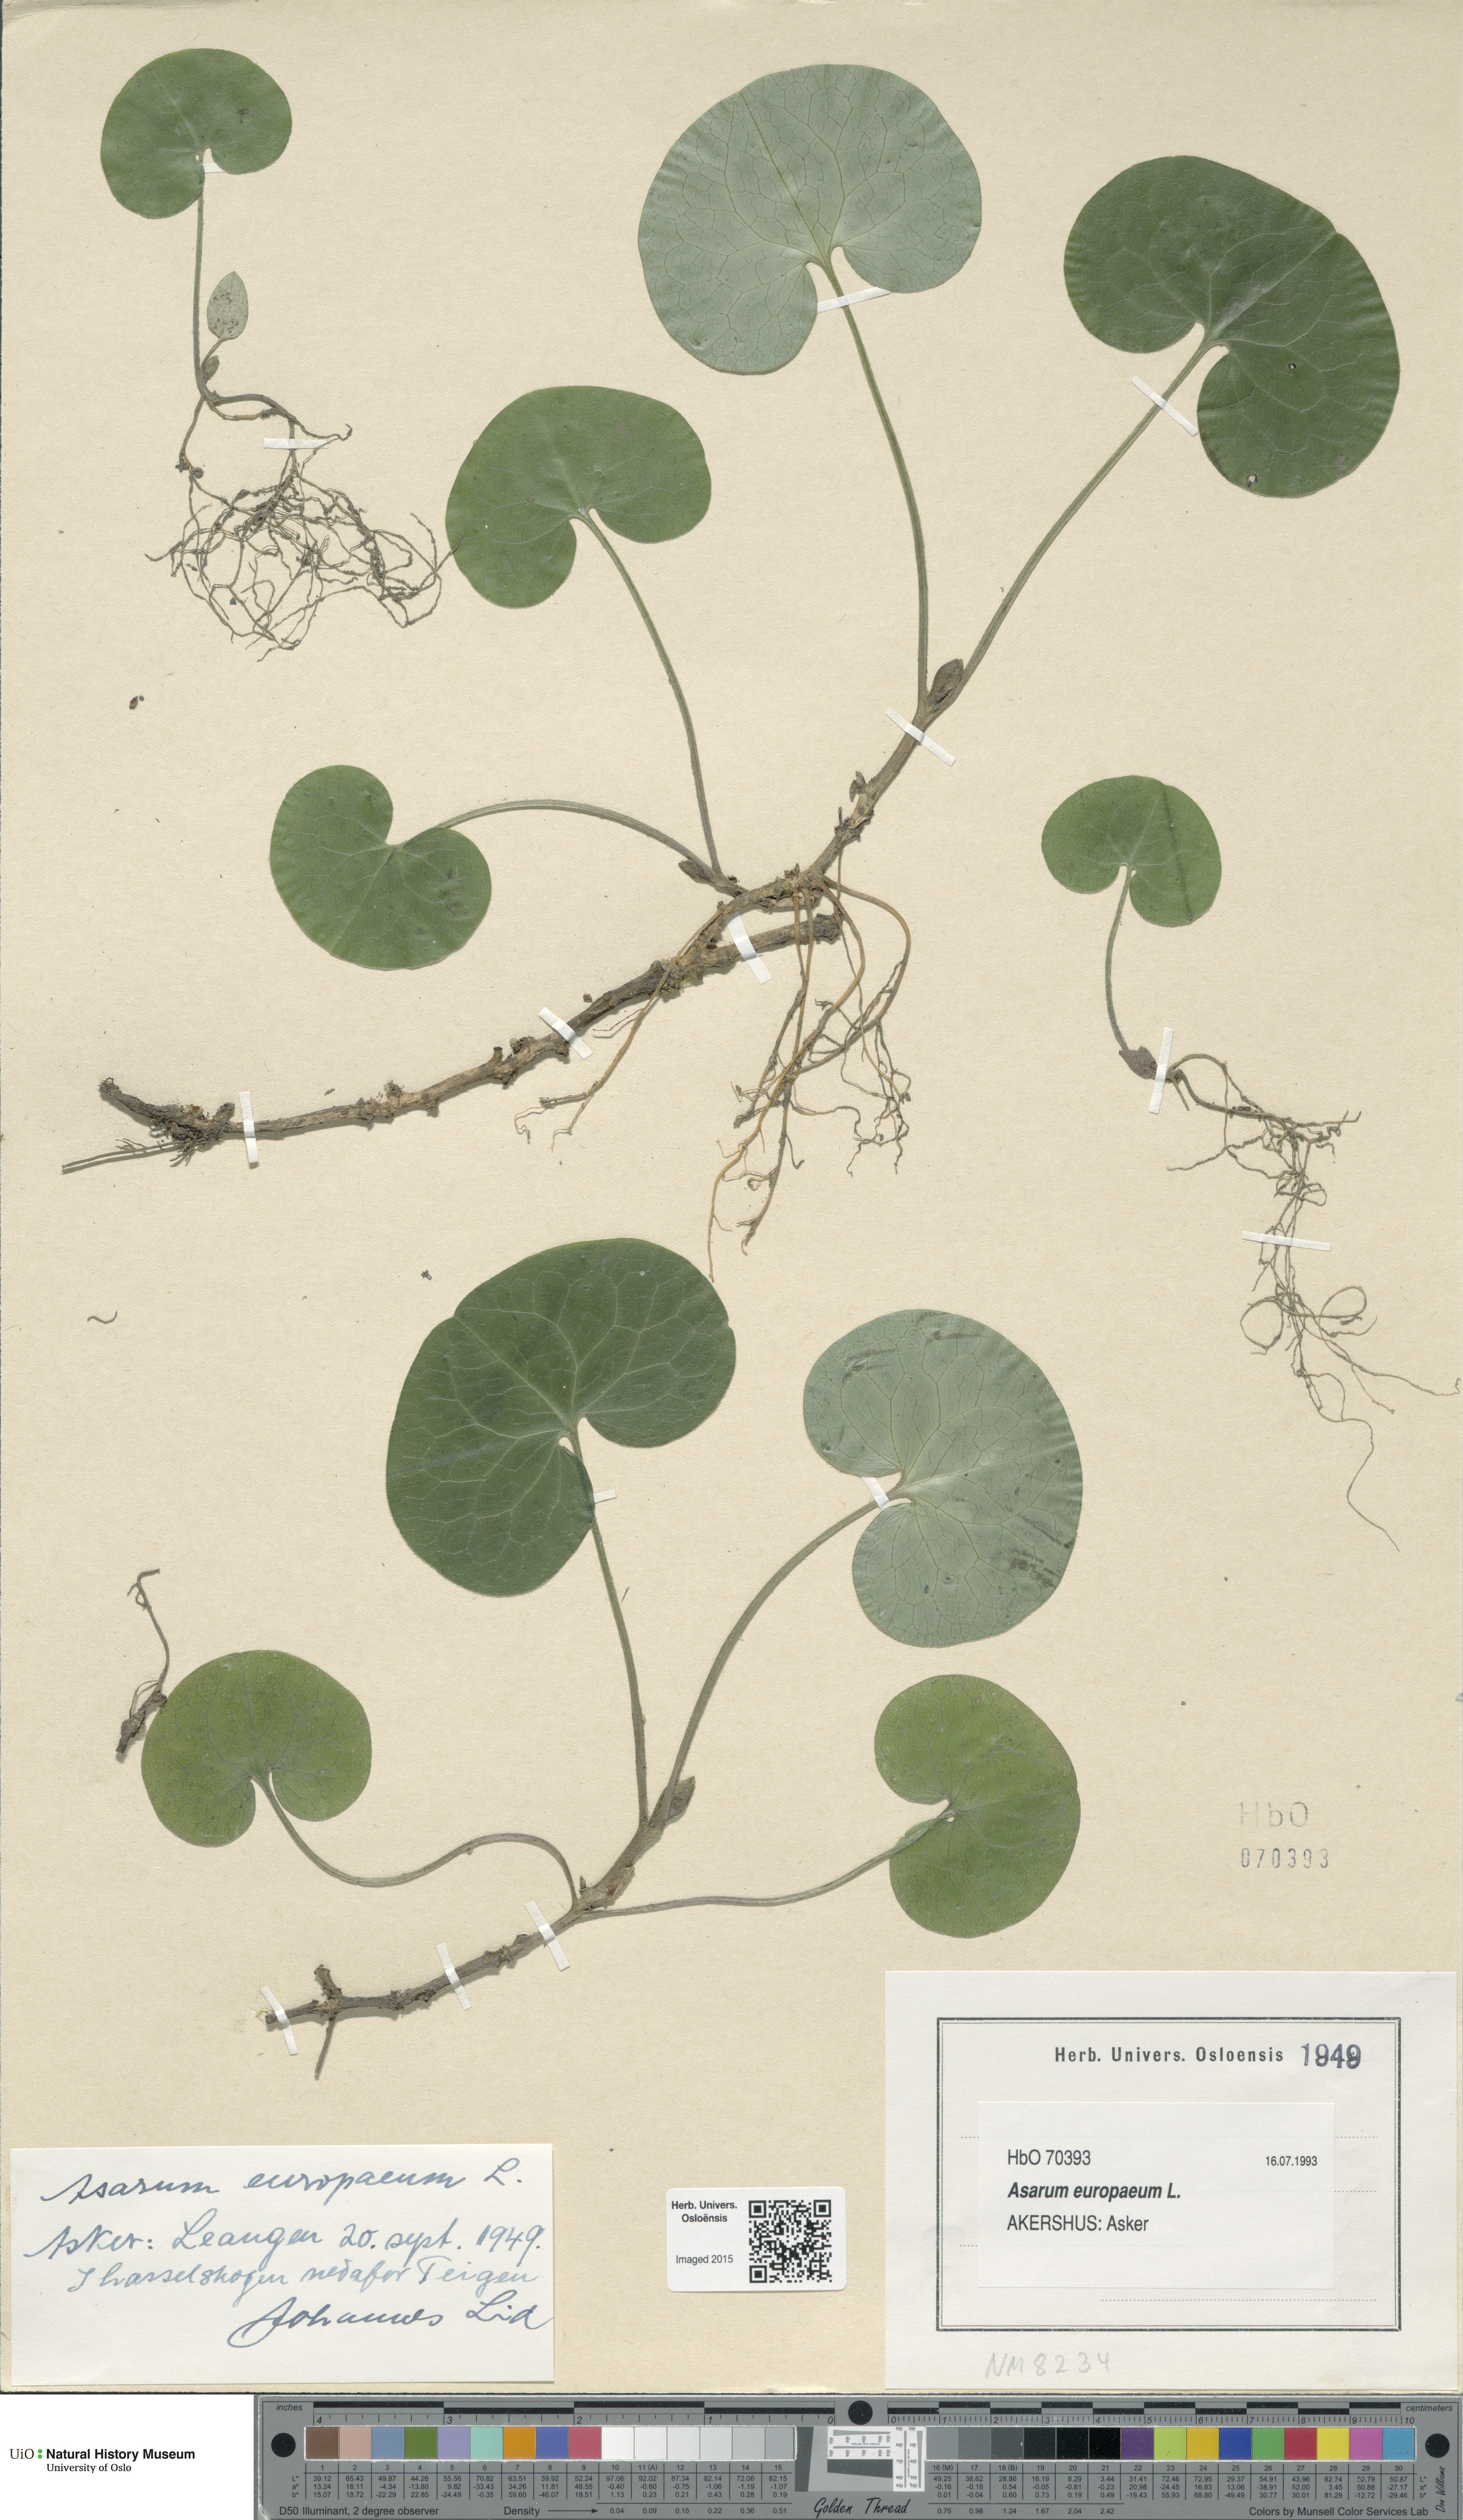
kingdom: Plantae
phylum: Tracheophyta
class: Magnoliopsida
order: Piperales
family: Aristolochiaceae
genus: Asarum
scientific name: Asarum europaeum
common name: Asarabacca
